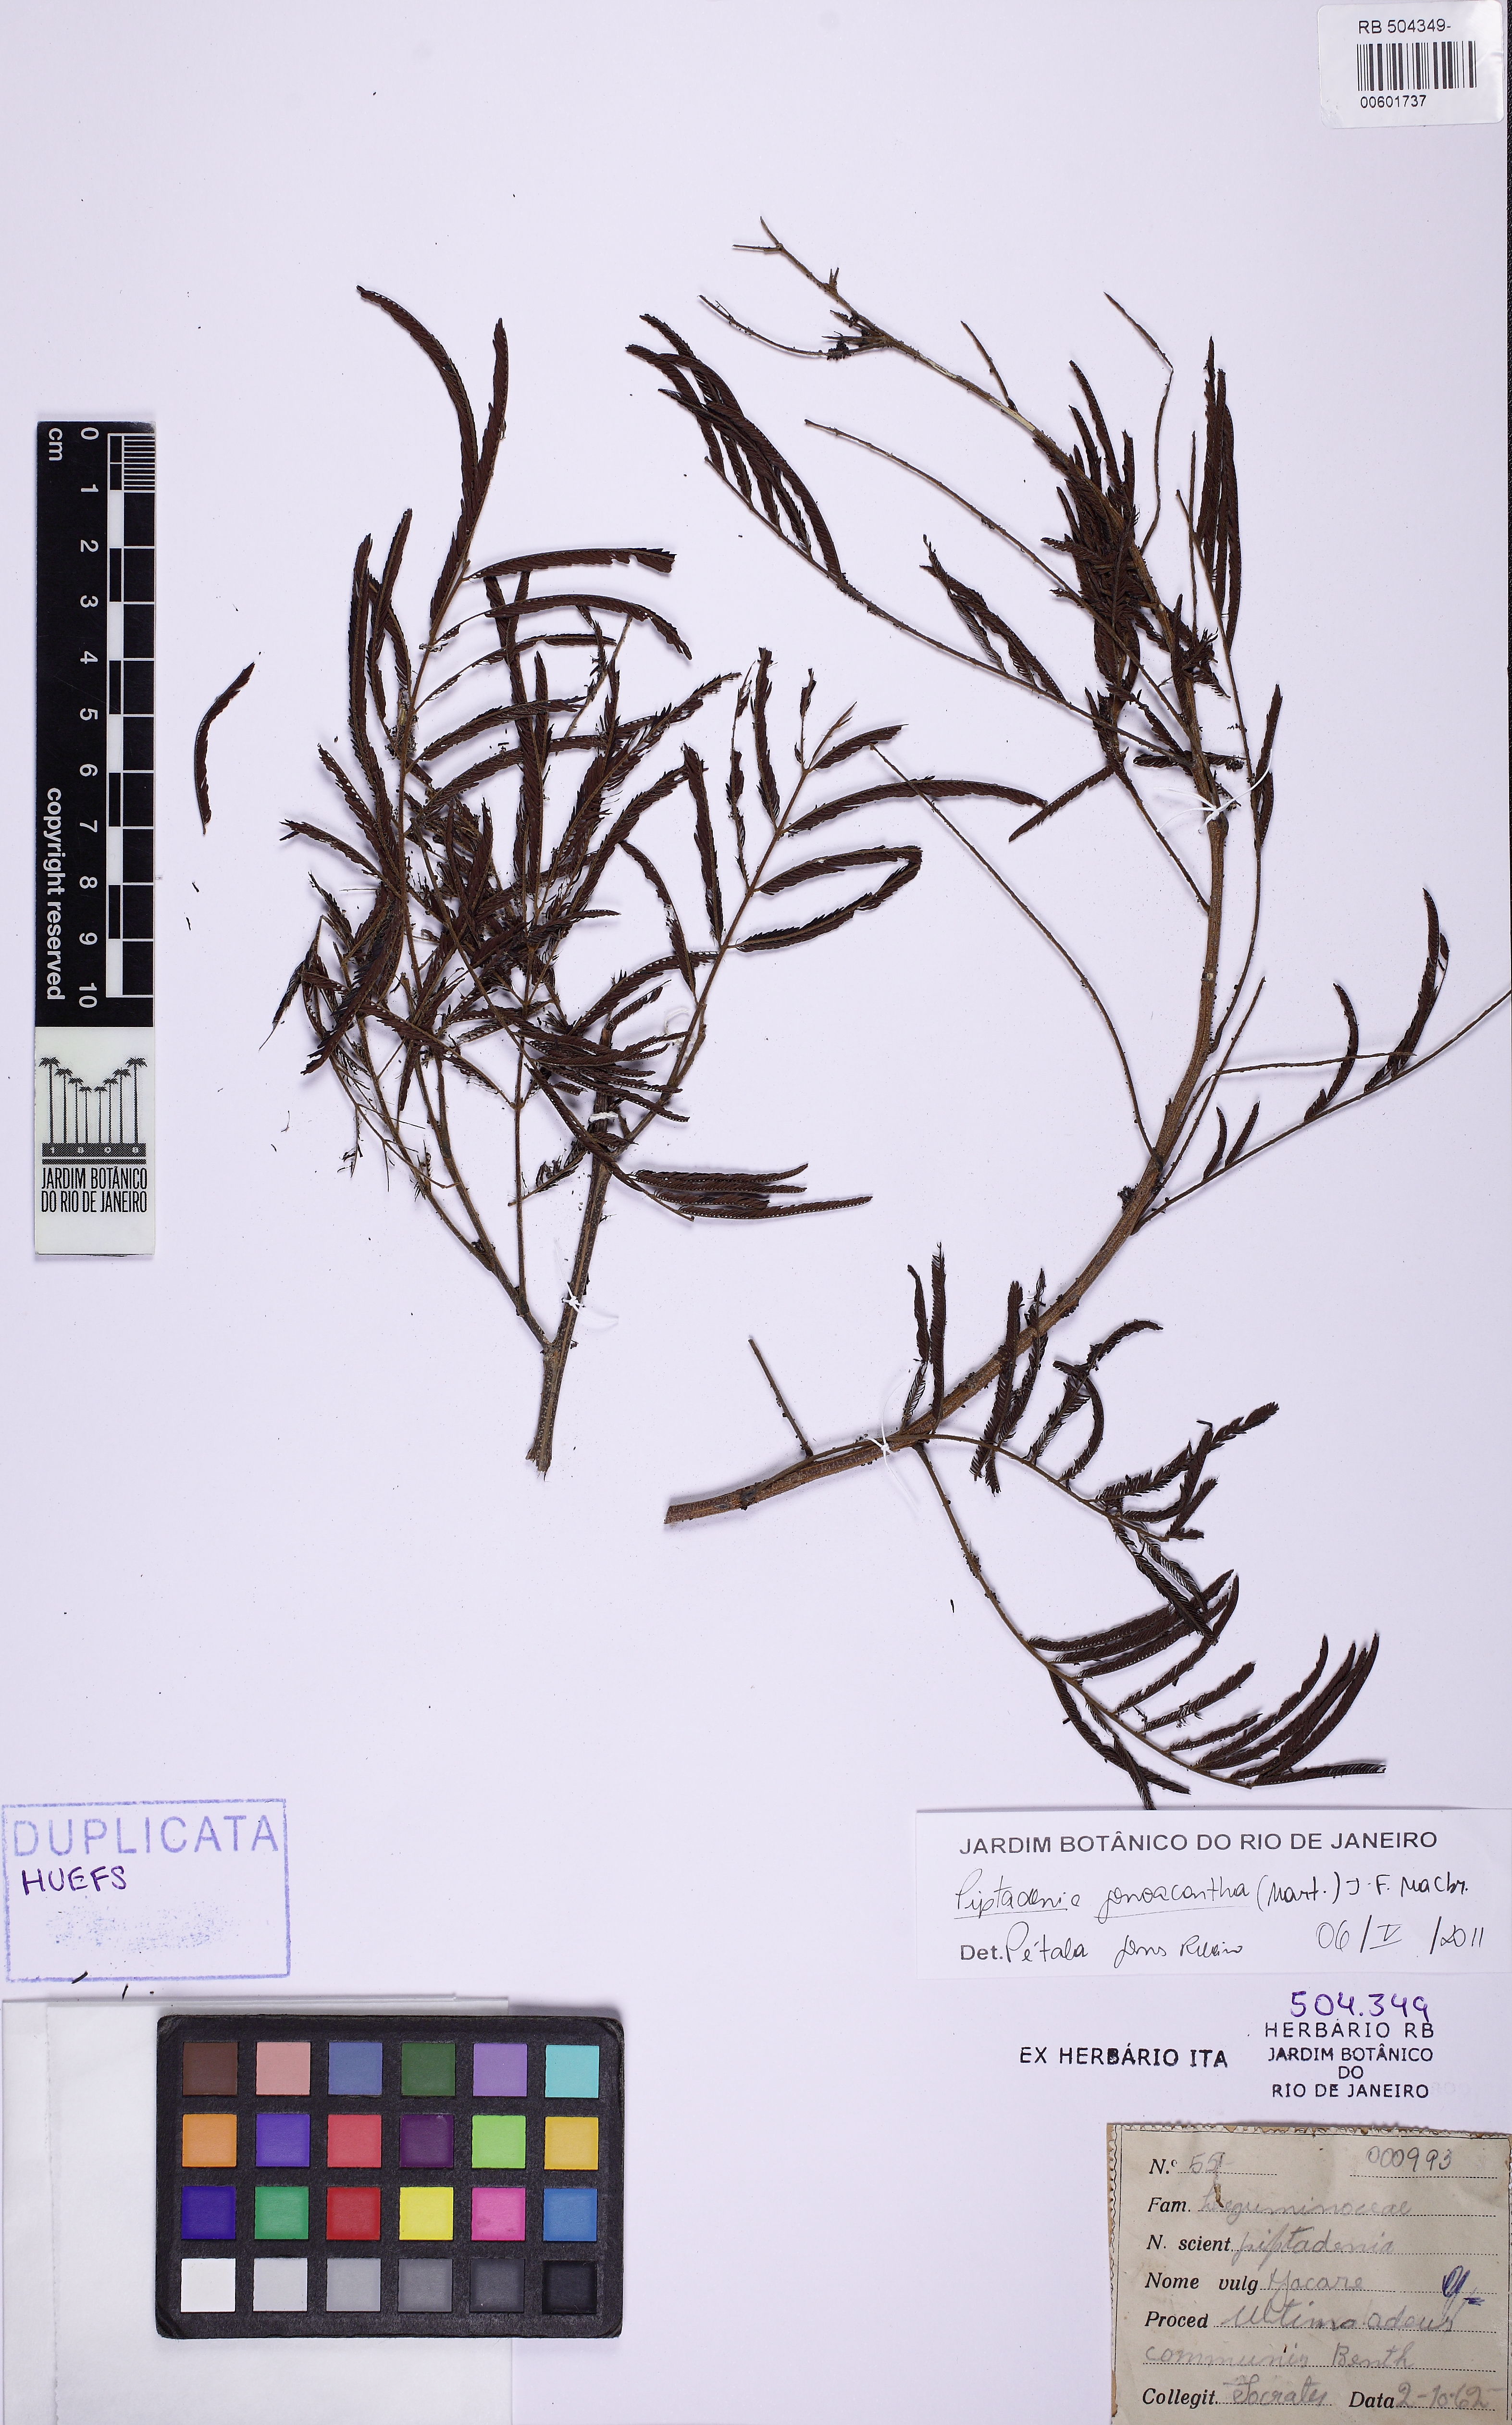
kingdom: Plantae
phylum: Tracheophyta
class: Magnoliopsida
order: Fabales
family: Fabaceae
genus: Piptadenia
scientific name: Piptadenia gonoacantha
